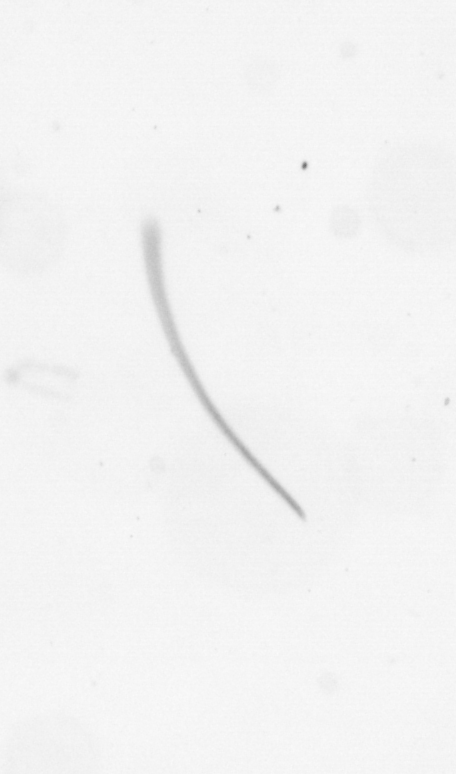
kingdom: Chromista
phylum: Ochrophyta
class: Bacillariophyceae
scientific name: Bacillariophyceae
